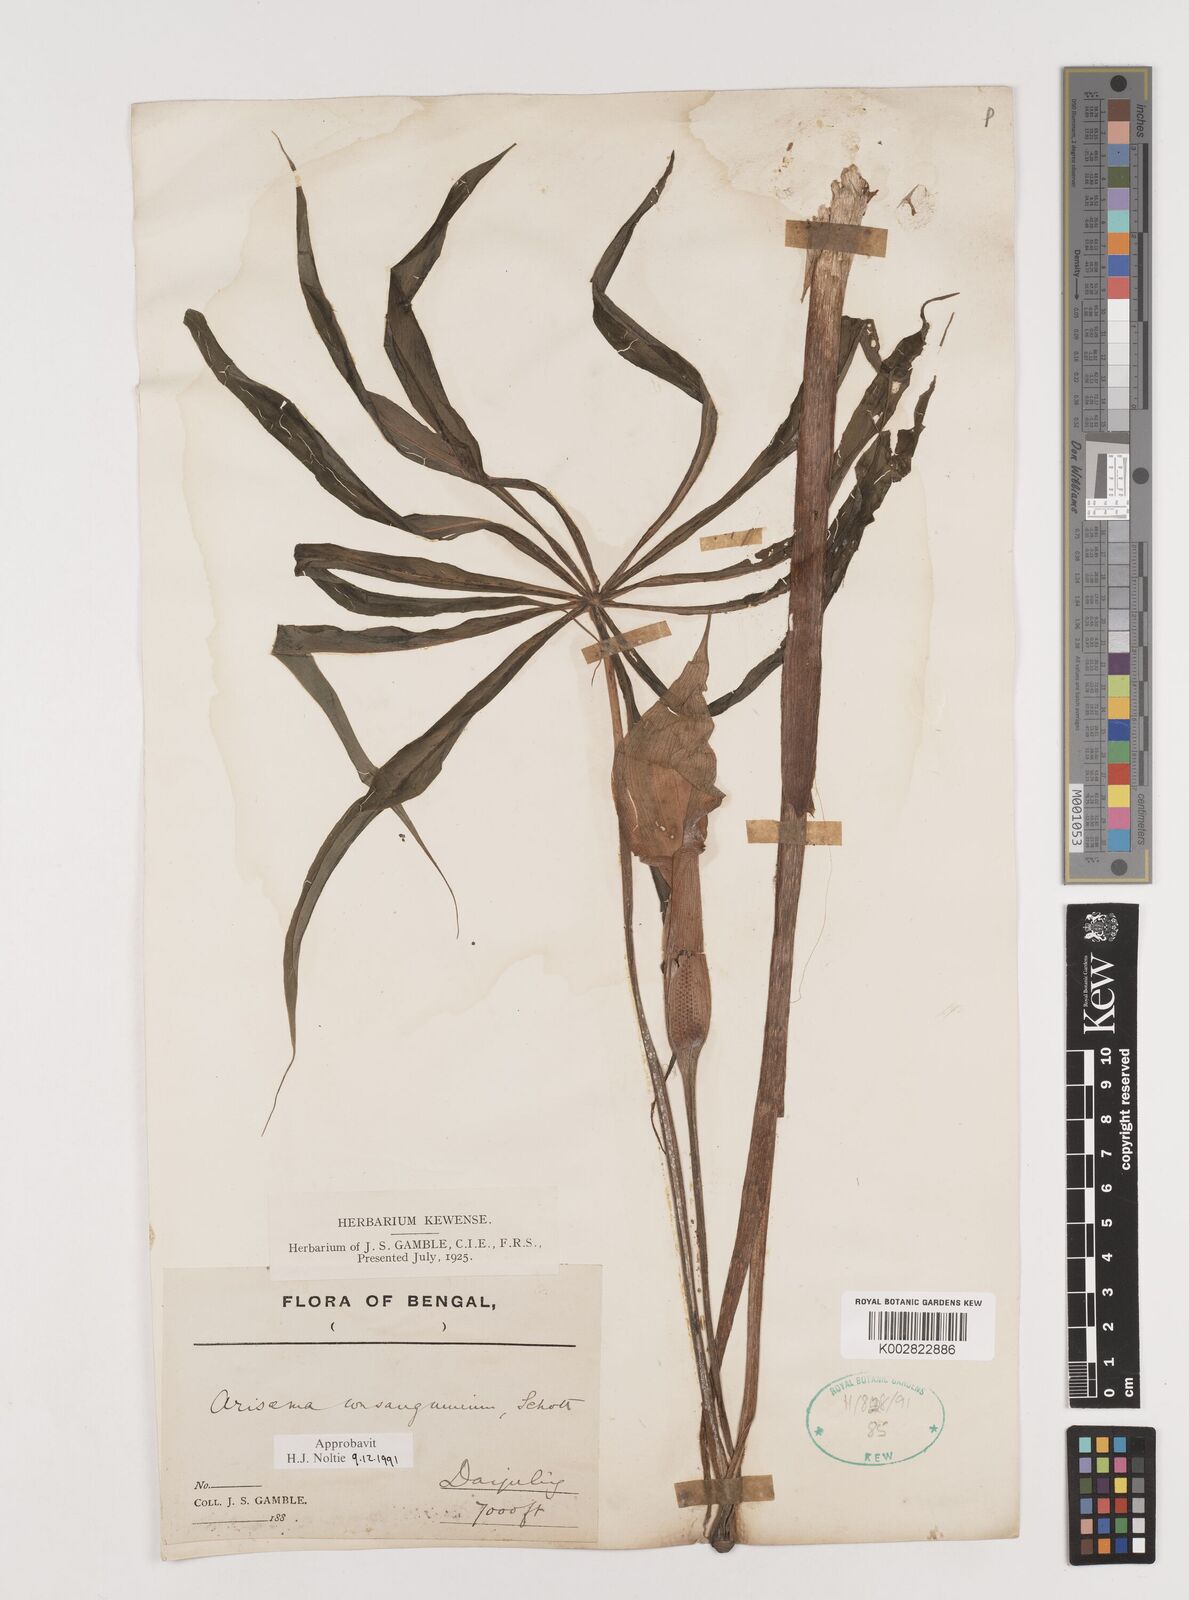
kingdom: Plantae
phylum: Tracheophyta
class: Liliopsida
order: Alismatales
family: Araceae
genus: Arisaema
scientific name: Arisaema erubescens
